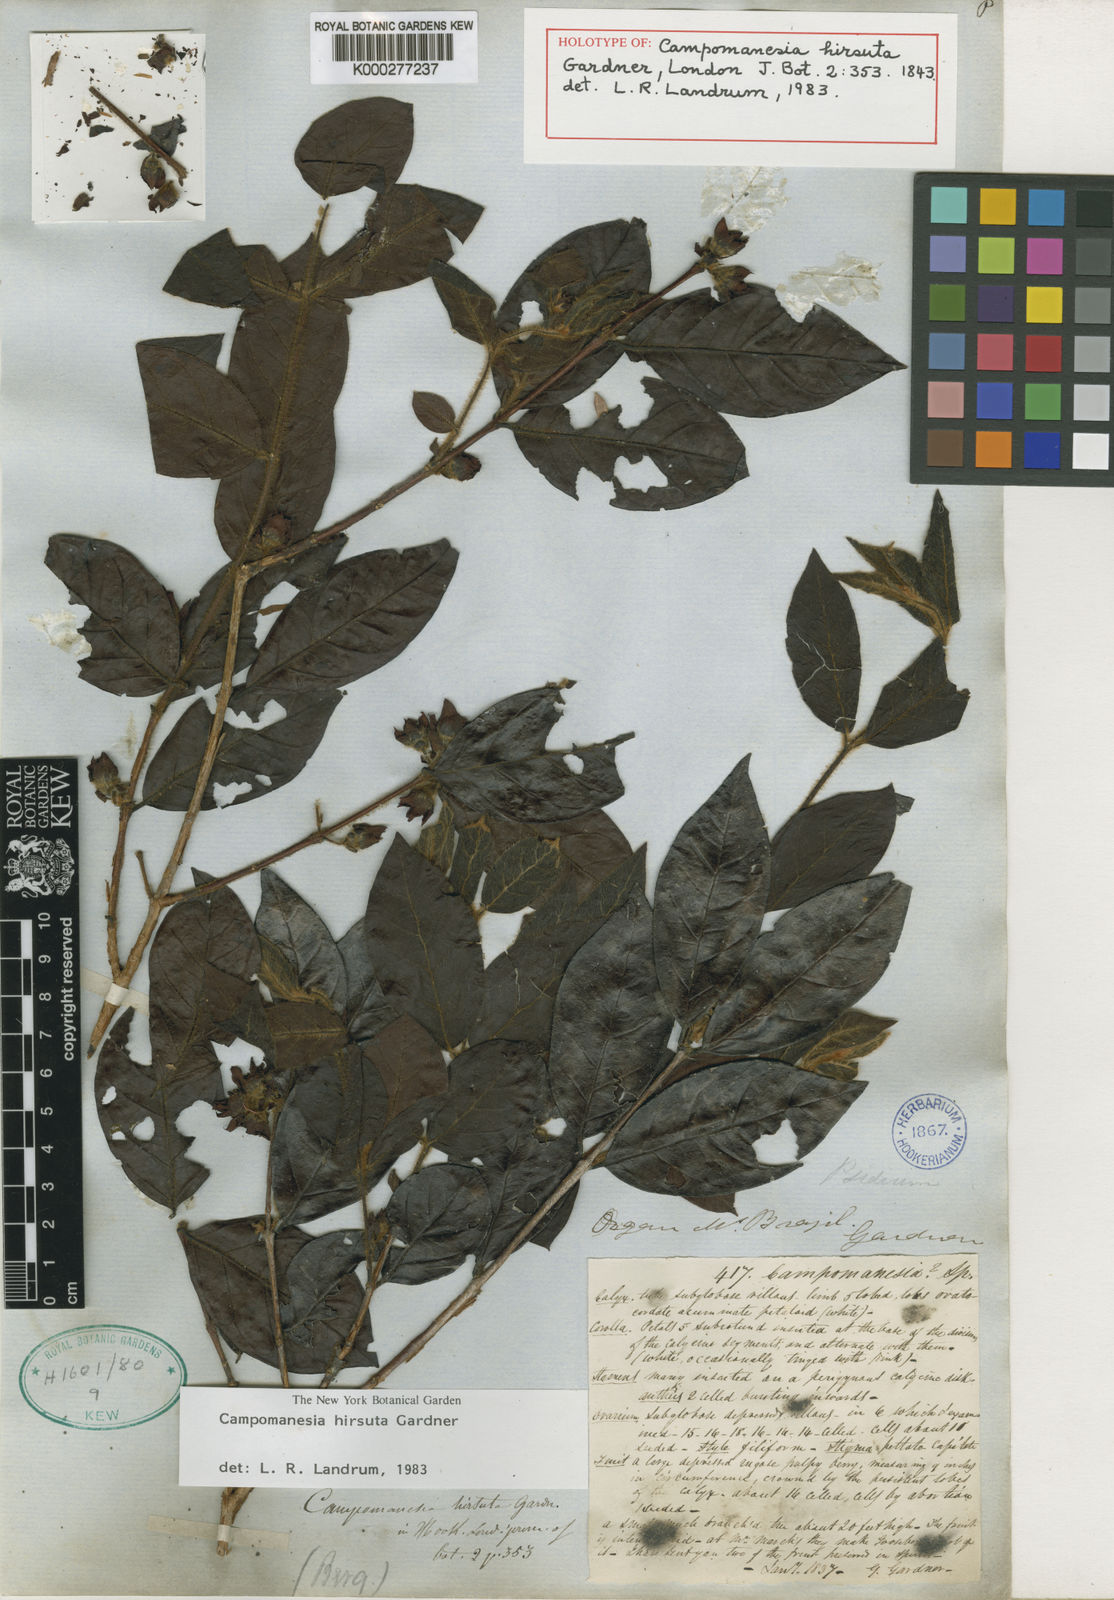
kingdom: Plantae
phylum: Tracheophyta
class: Magnoliopsida
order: Myrtales
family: Myrtaceae
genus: Campomanesia
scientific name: Campomanesia hirsuta
